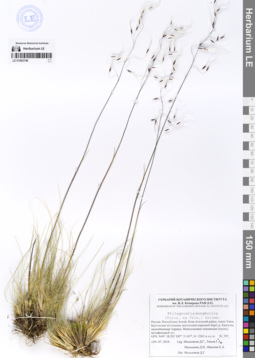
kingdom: Plantae
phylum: Tracheophyta
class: Liliopsida
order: Poales
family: Poaceae
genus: Ptilagrostis
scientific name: Ptilagrostis mongholica
